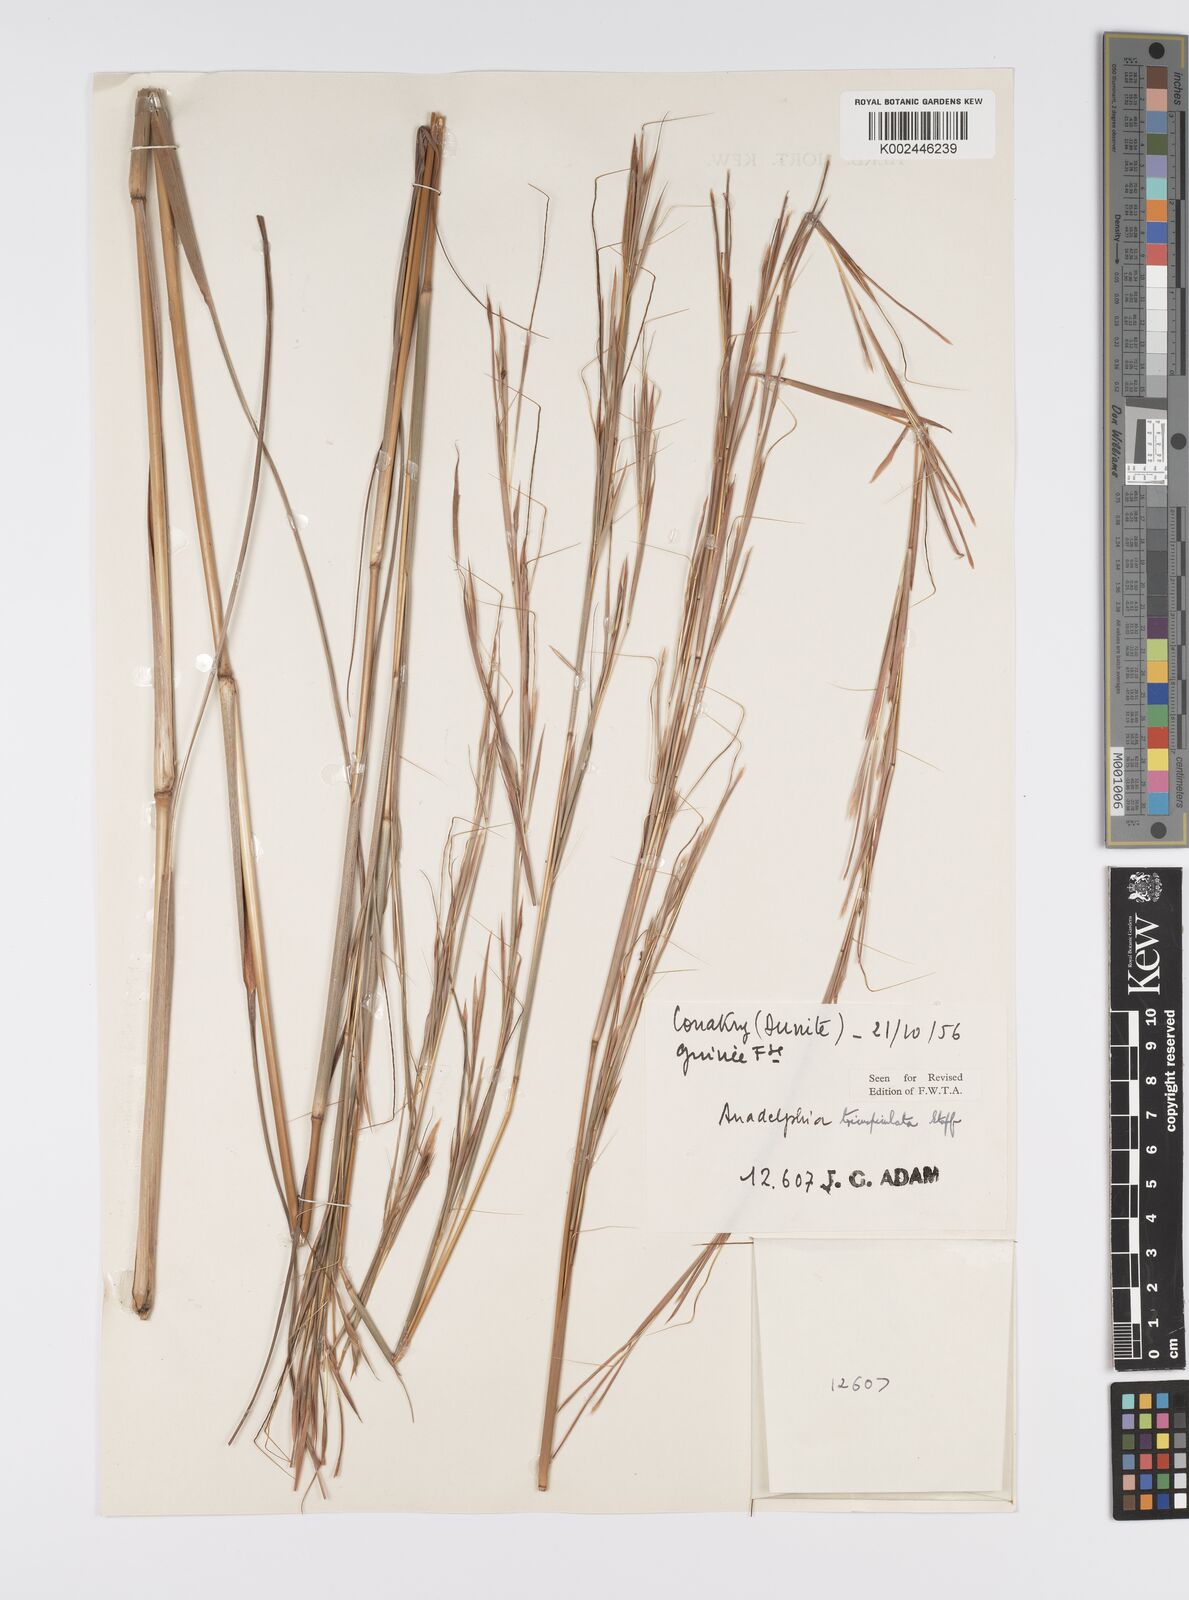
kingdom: Plantae
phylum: Tracheophyta
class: Liliopsida
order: Poales
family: Poaceae
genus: Anadelphia
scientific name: Anadelphia trispiculata
